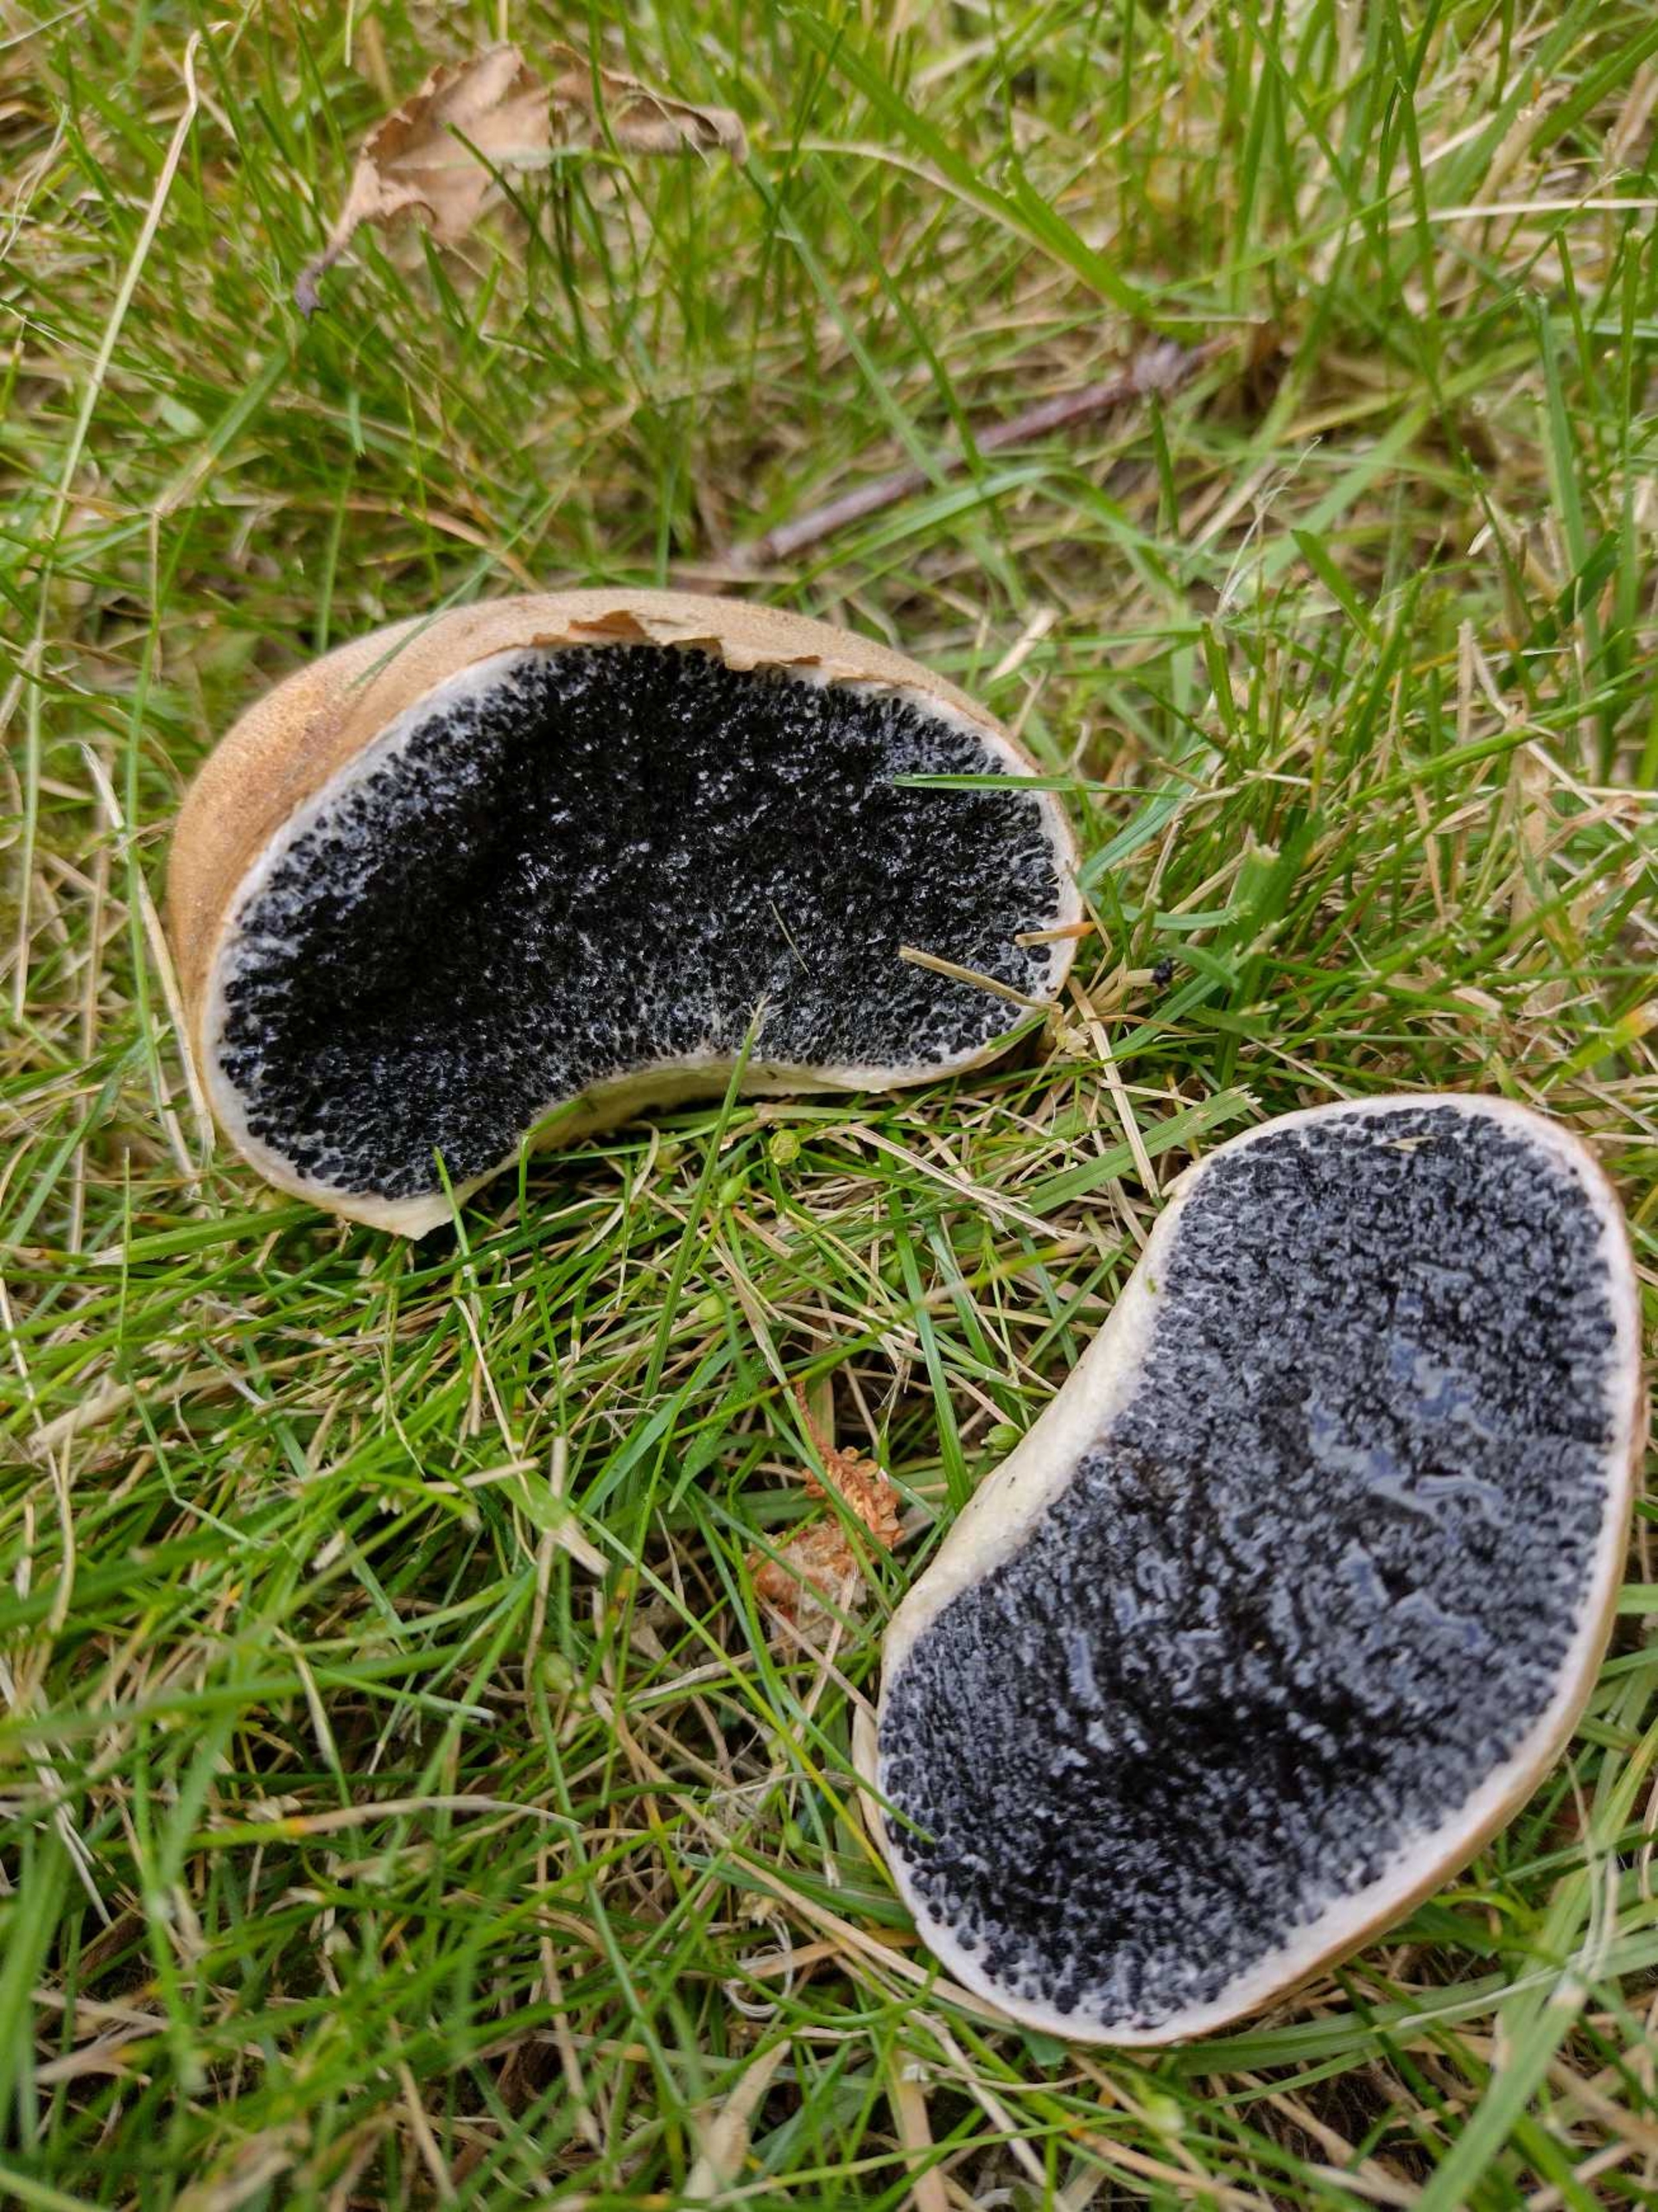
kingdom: Fungi
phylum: Basidiomycota
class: Agaricomycetes
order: Boletales
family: Sclerodermataceae
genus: Scleroderma
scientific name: Scleroderma
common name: Bruskbold
